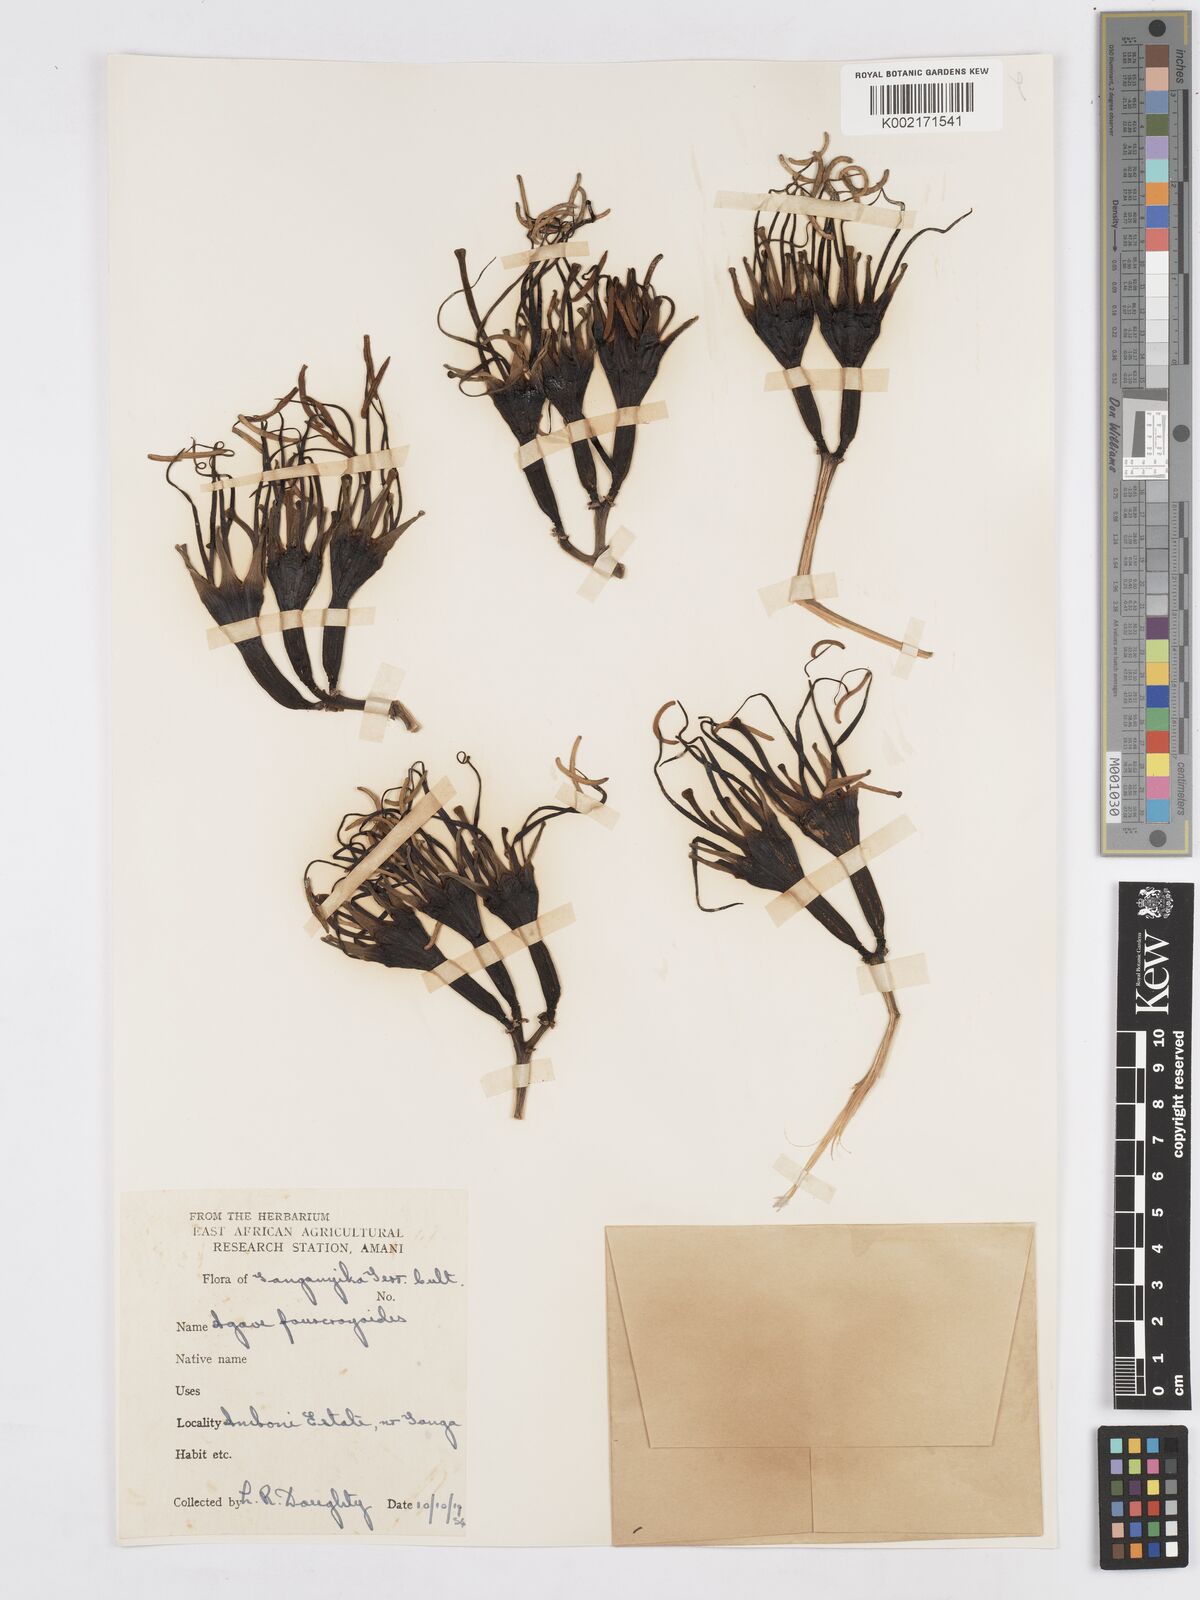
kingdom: Plantae
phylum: Tracheophyta
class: Liliopsida
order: Asparagales
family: Asparagaceae
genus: Agave
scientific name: Agave fourcroydes
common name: Henequen
